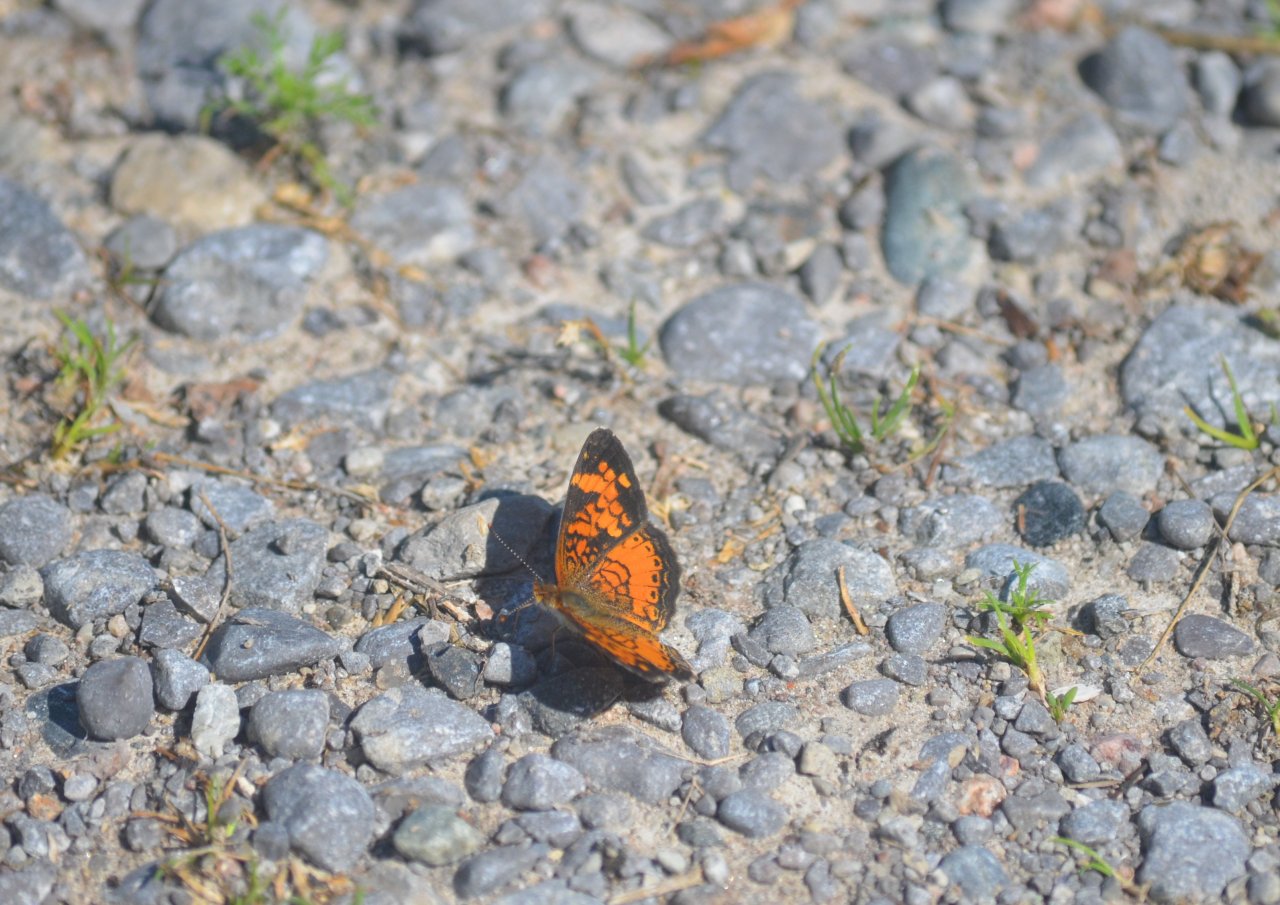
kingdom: Animalia
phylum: Arthropoda
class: Insecta
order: Lepidoptera
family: Nymphalidae
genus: Phyciodes
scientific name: Phyciodes tharos
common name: Northern Crescent
